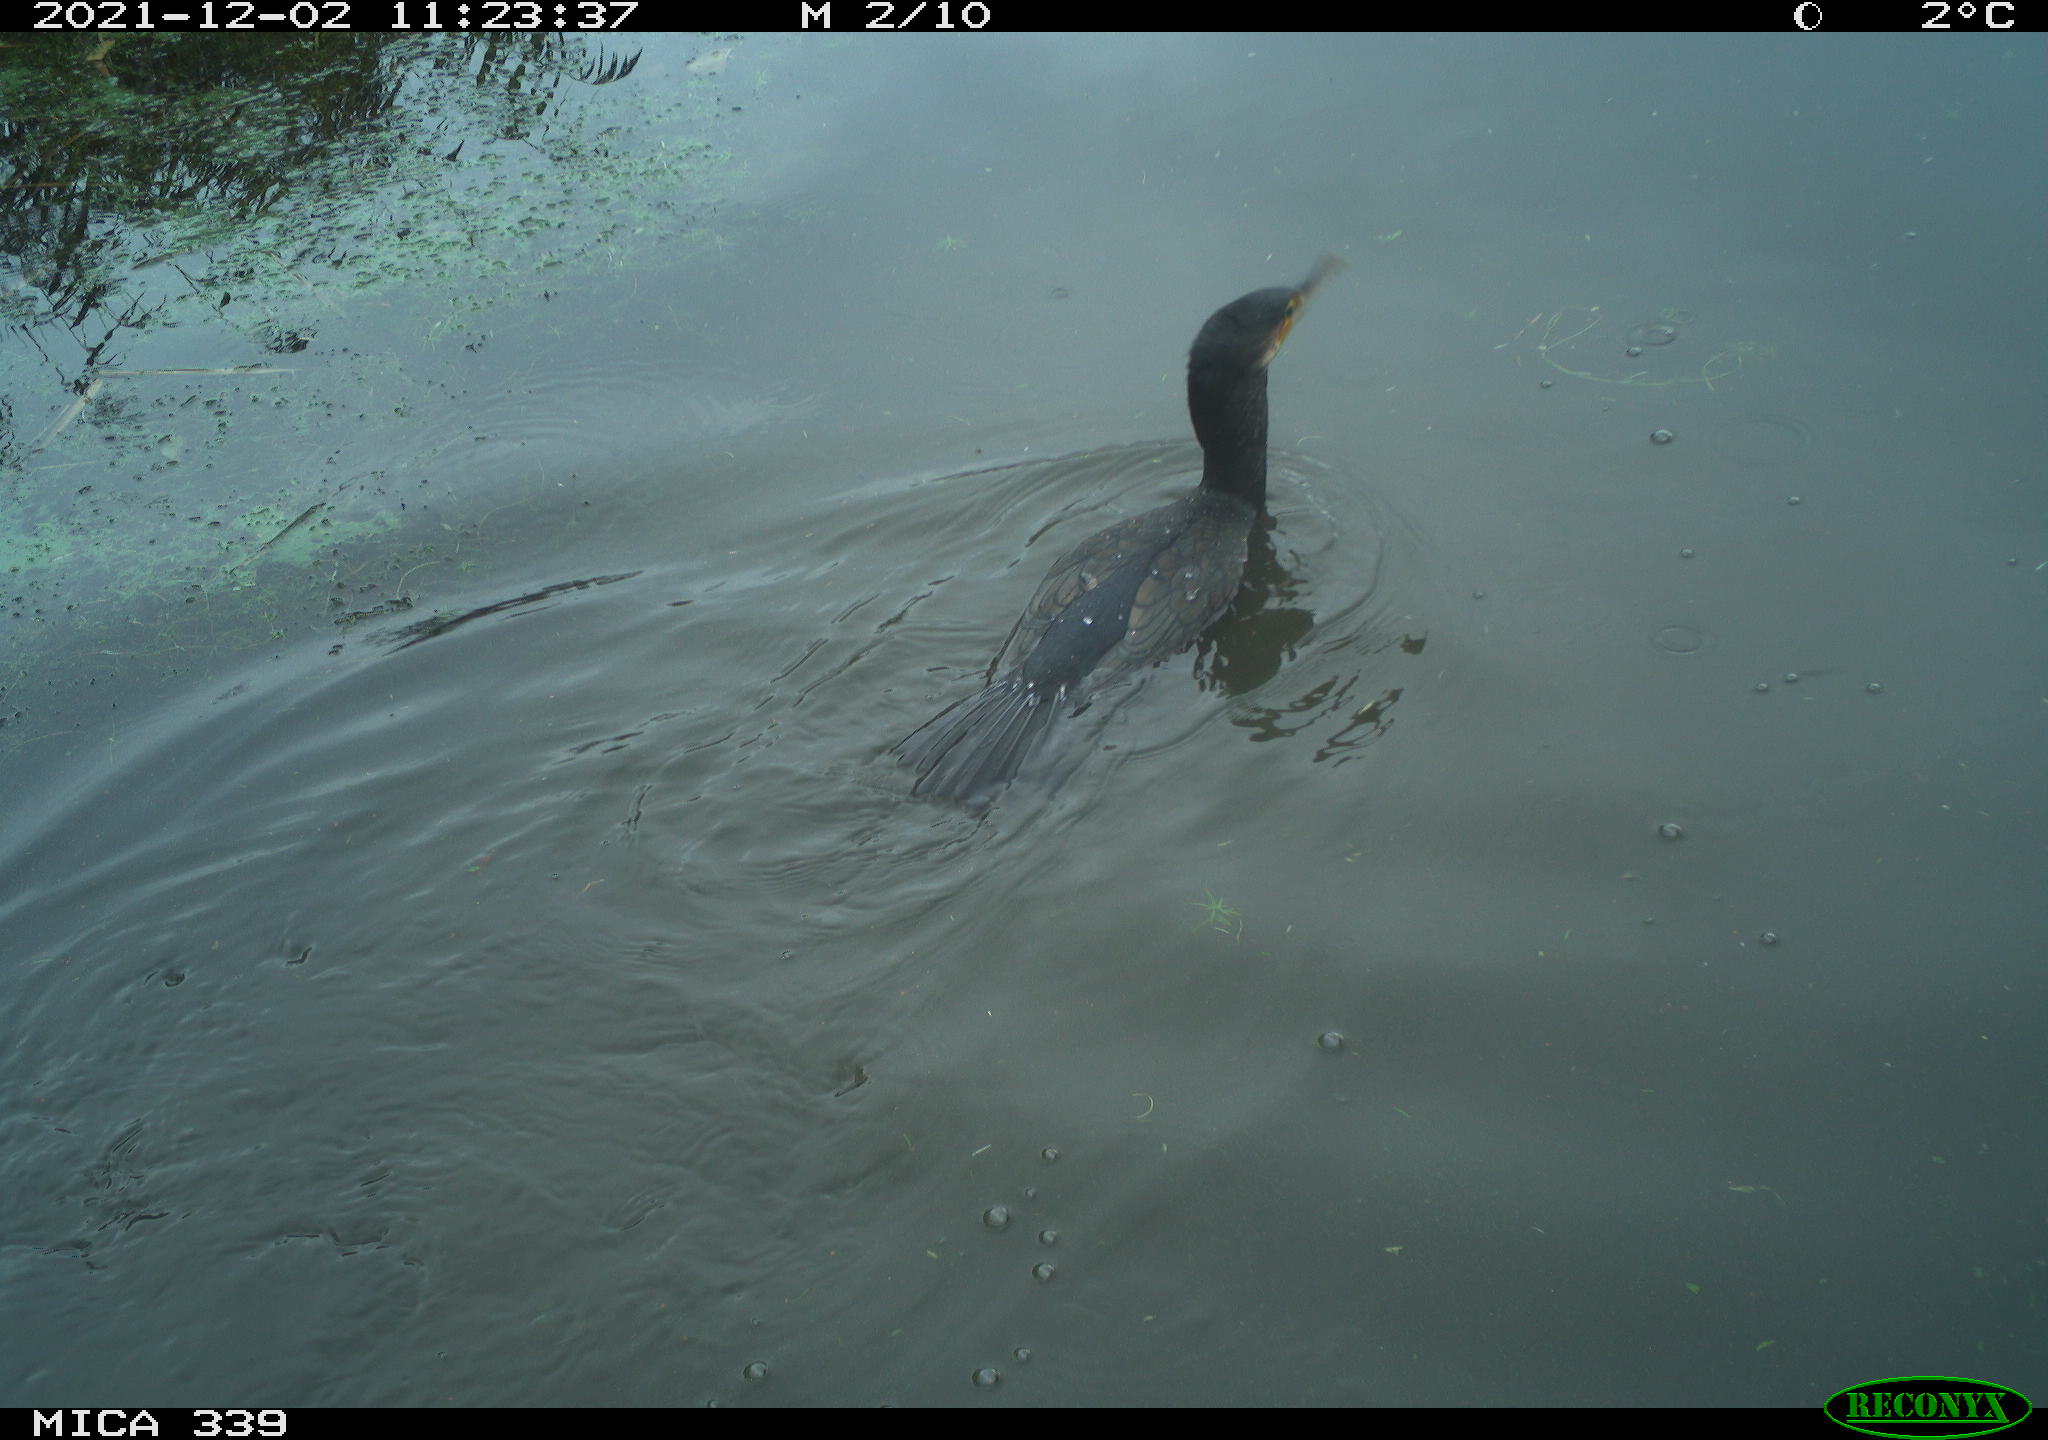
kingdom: Animalia
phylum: Chordata
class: Aves
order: Suliformes
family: Phalacrocoracidae
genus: Phalacrocorax
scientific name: Phalacrocorax carbo
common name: Great cormorant
